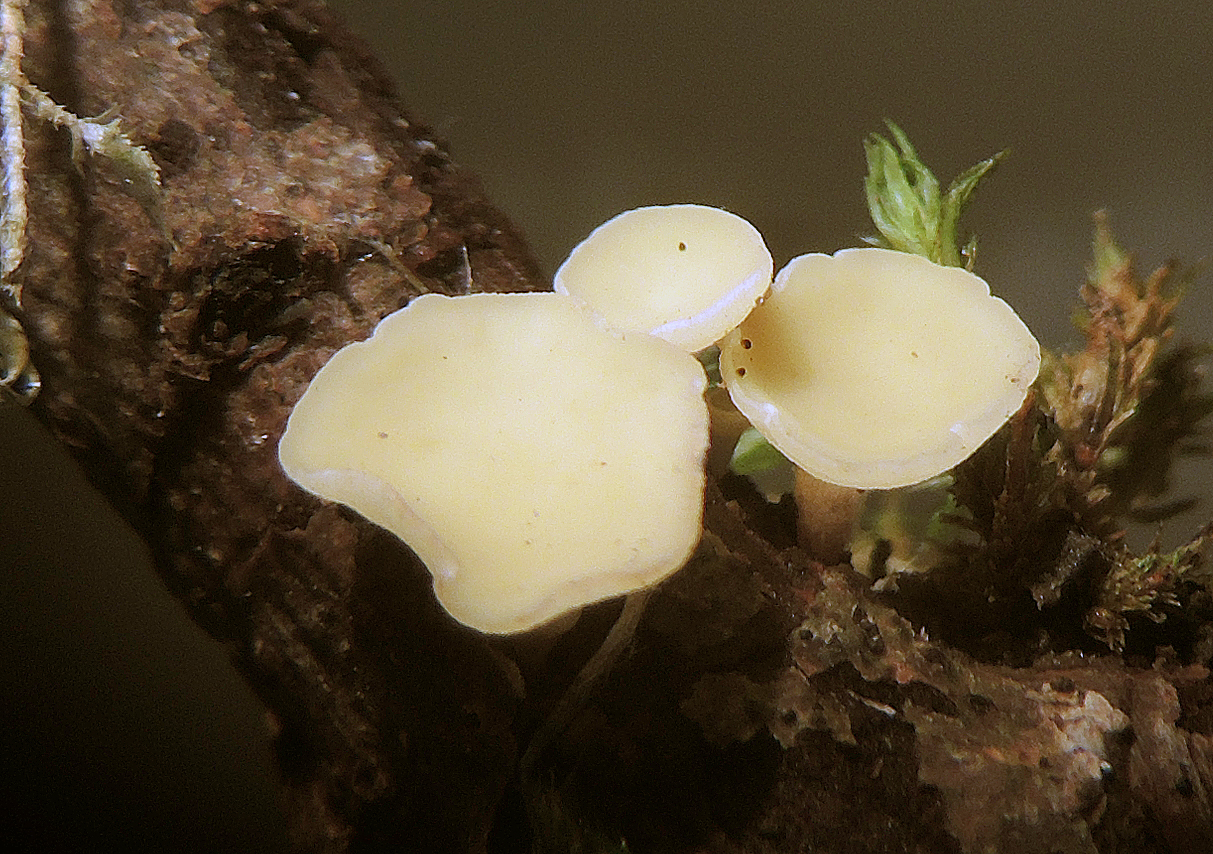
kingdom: Fungi
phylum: Ascomycota
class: Leotiomycetes
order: Helotiales
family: Helotiaceae
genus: Hymenoscyphus
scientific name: Hymenoscyphus calyculus
